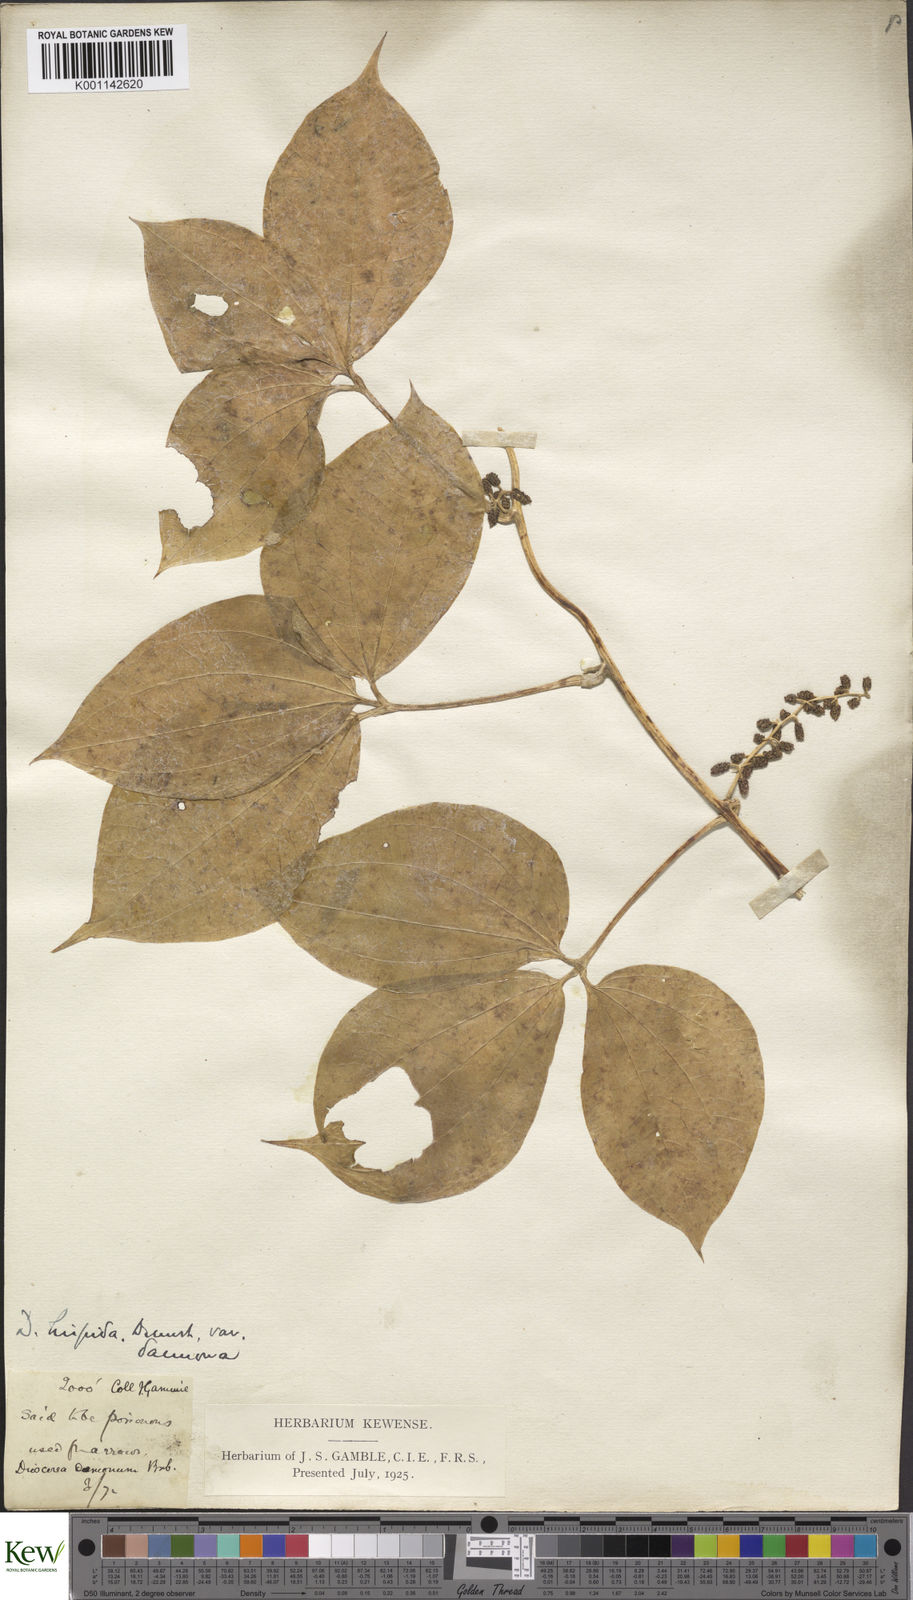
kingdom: Plantae
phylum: Tracheophyta
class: Liliopsida
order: Dioscoreales
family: Dioscoreaceae
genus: Dioscorea
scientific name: Dioscorea hispida
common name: Asiatic bitter yam
